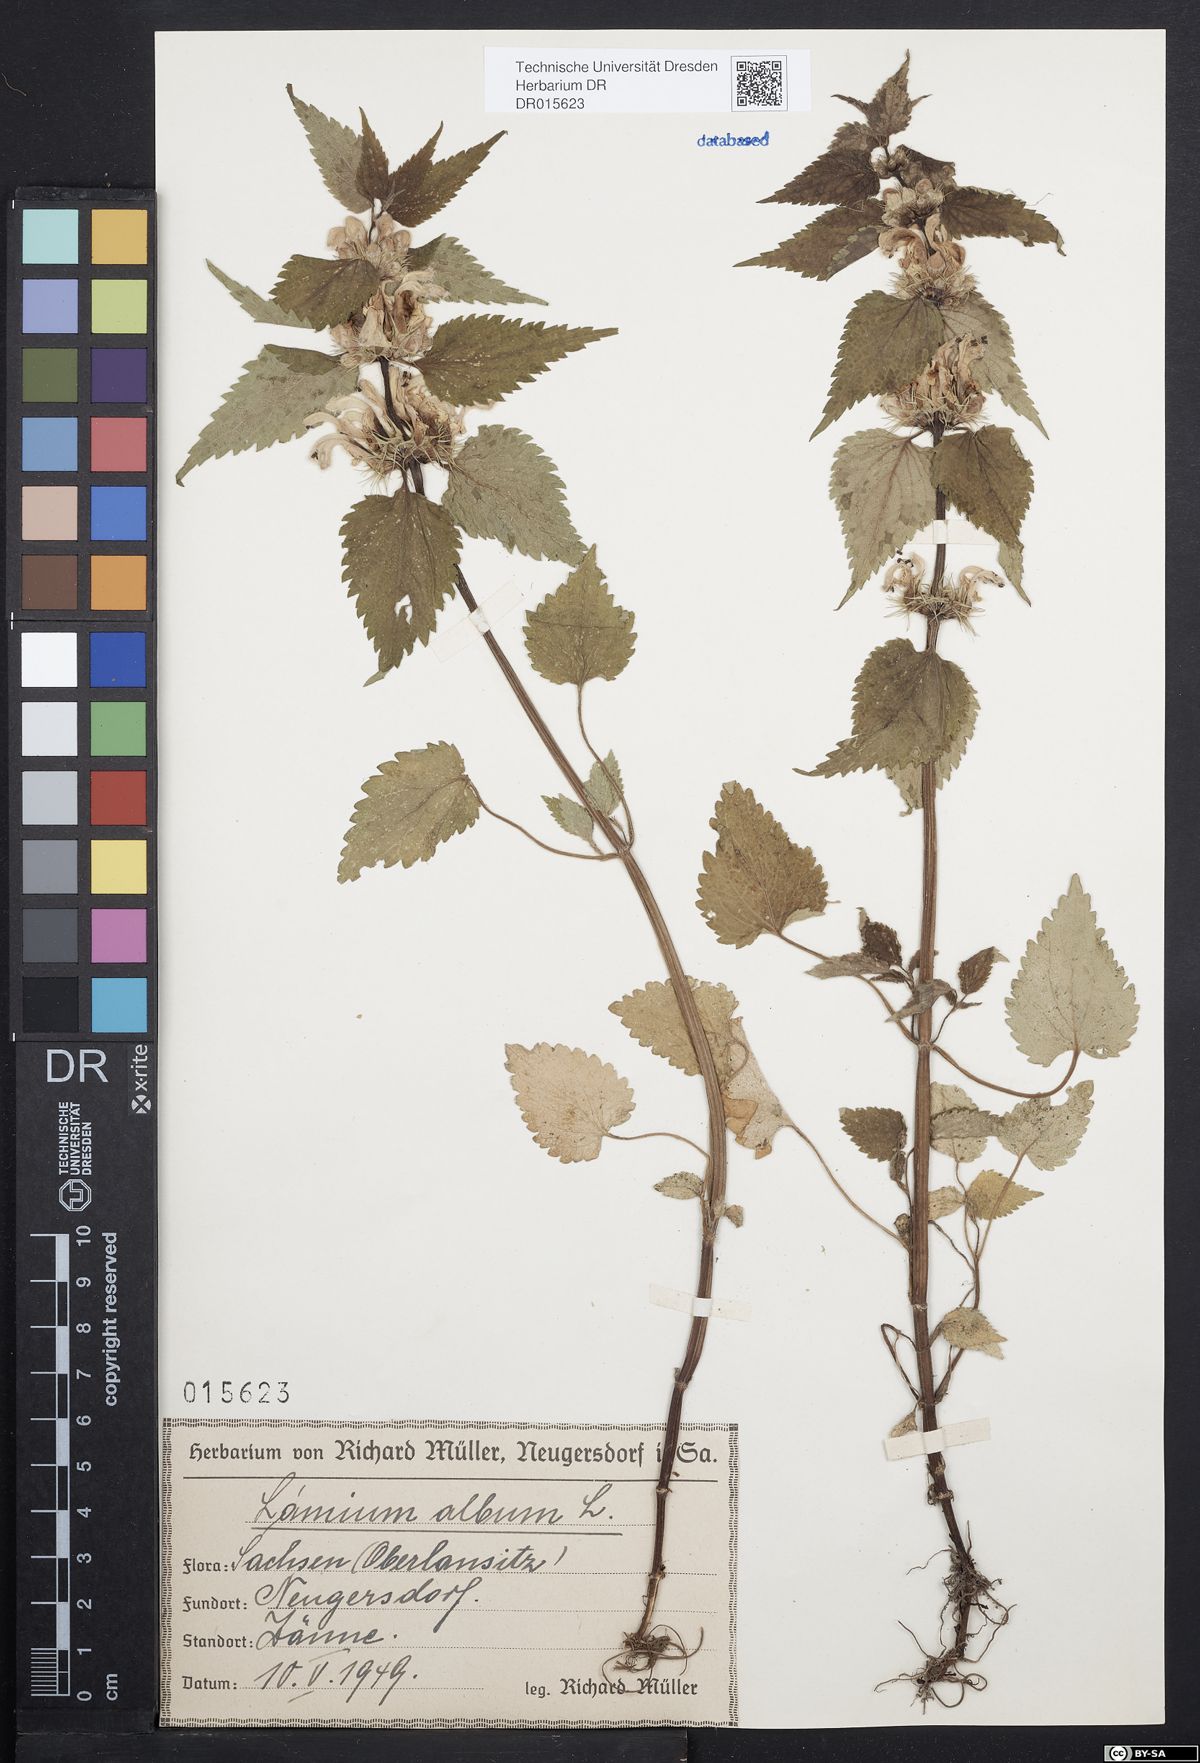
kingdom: Plantae
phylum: Tracheophyta
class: Magnoliopsida
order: Lamiales
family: Lamiaceae
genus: Lamium
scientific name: Lamium album
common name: White dead-nettle
